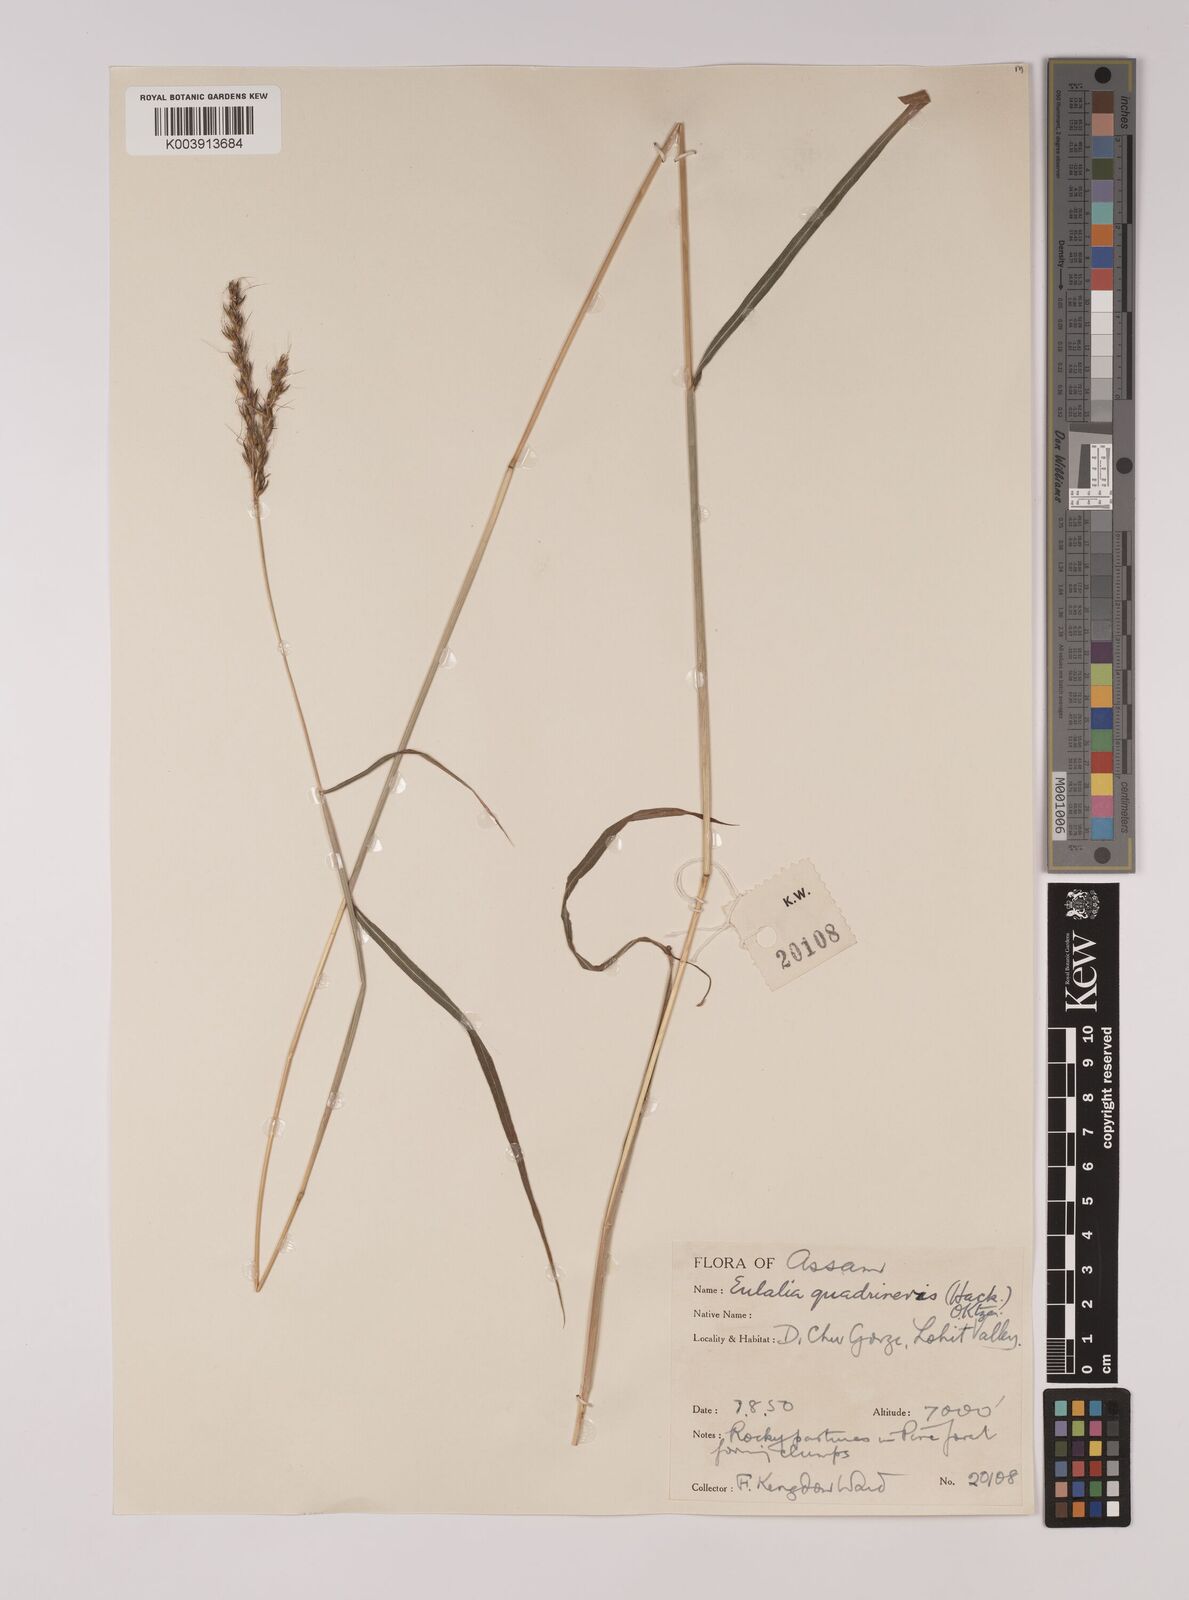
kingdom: Plantae
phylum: Tracheophyta
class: Liliopsida
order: Poales
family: Poaceae
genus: Pseudopogonatherum
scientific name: Pseudopogonatherum quadrinerve
